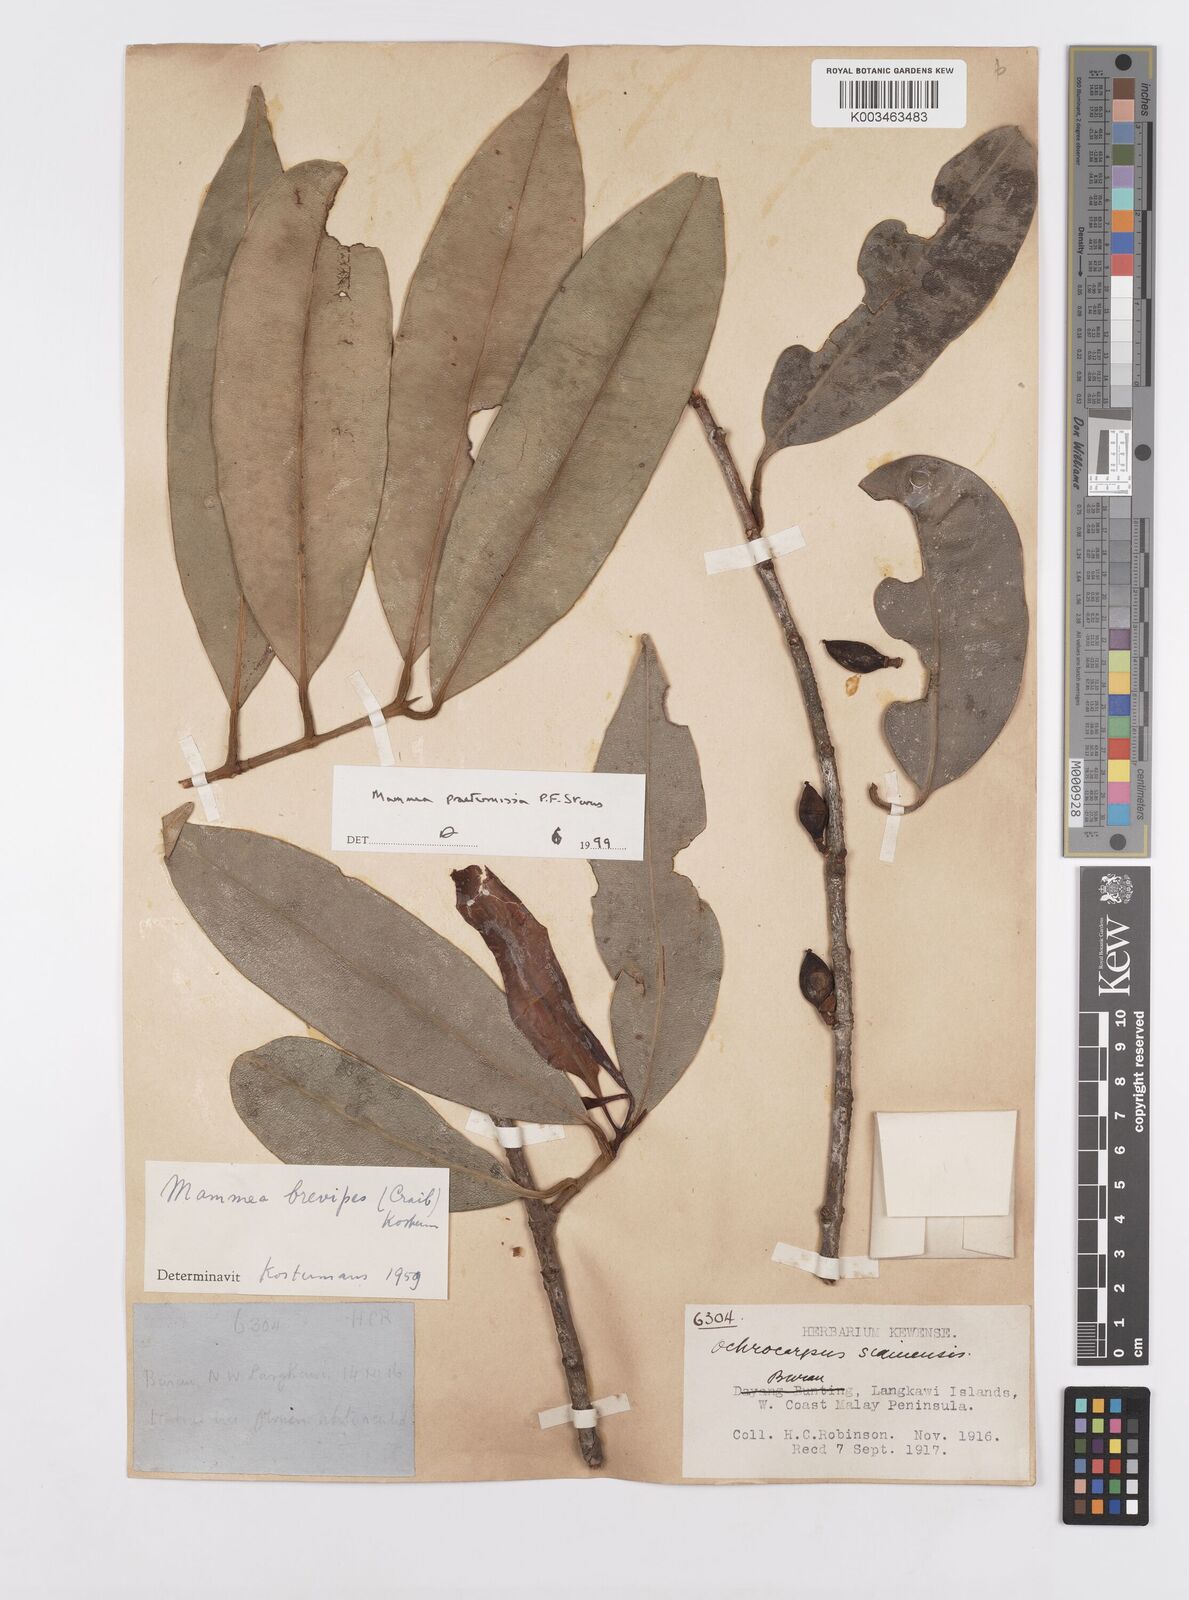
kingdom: Plantae
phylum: Tracheophyta
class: Magnoliopsida
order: Malpighiales
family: Calophyllaceae
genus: Mammea
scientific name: Mammea harmandii
